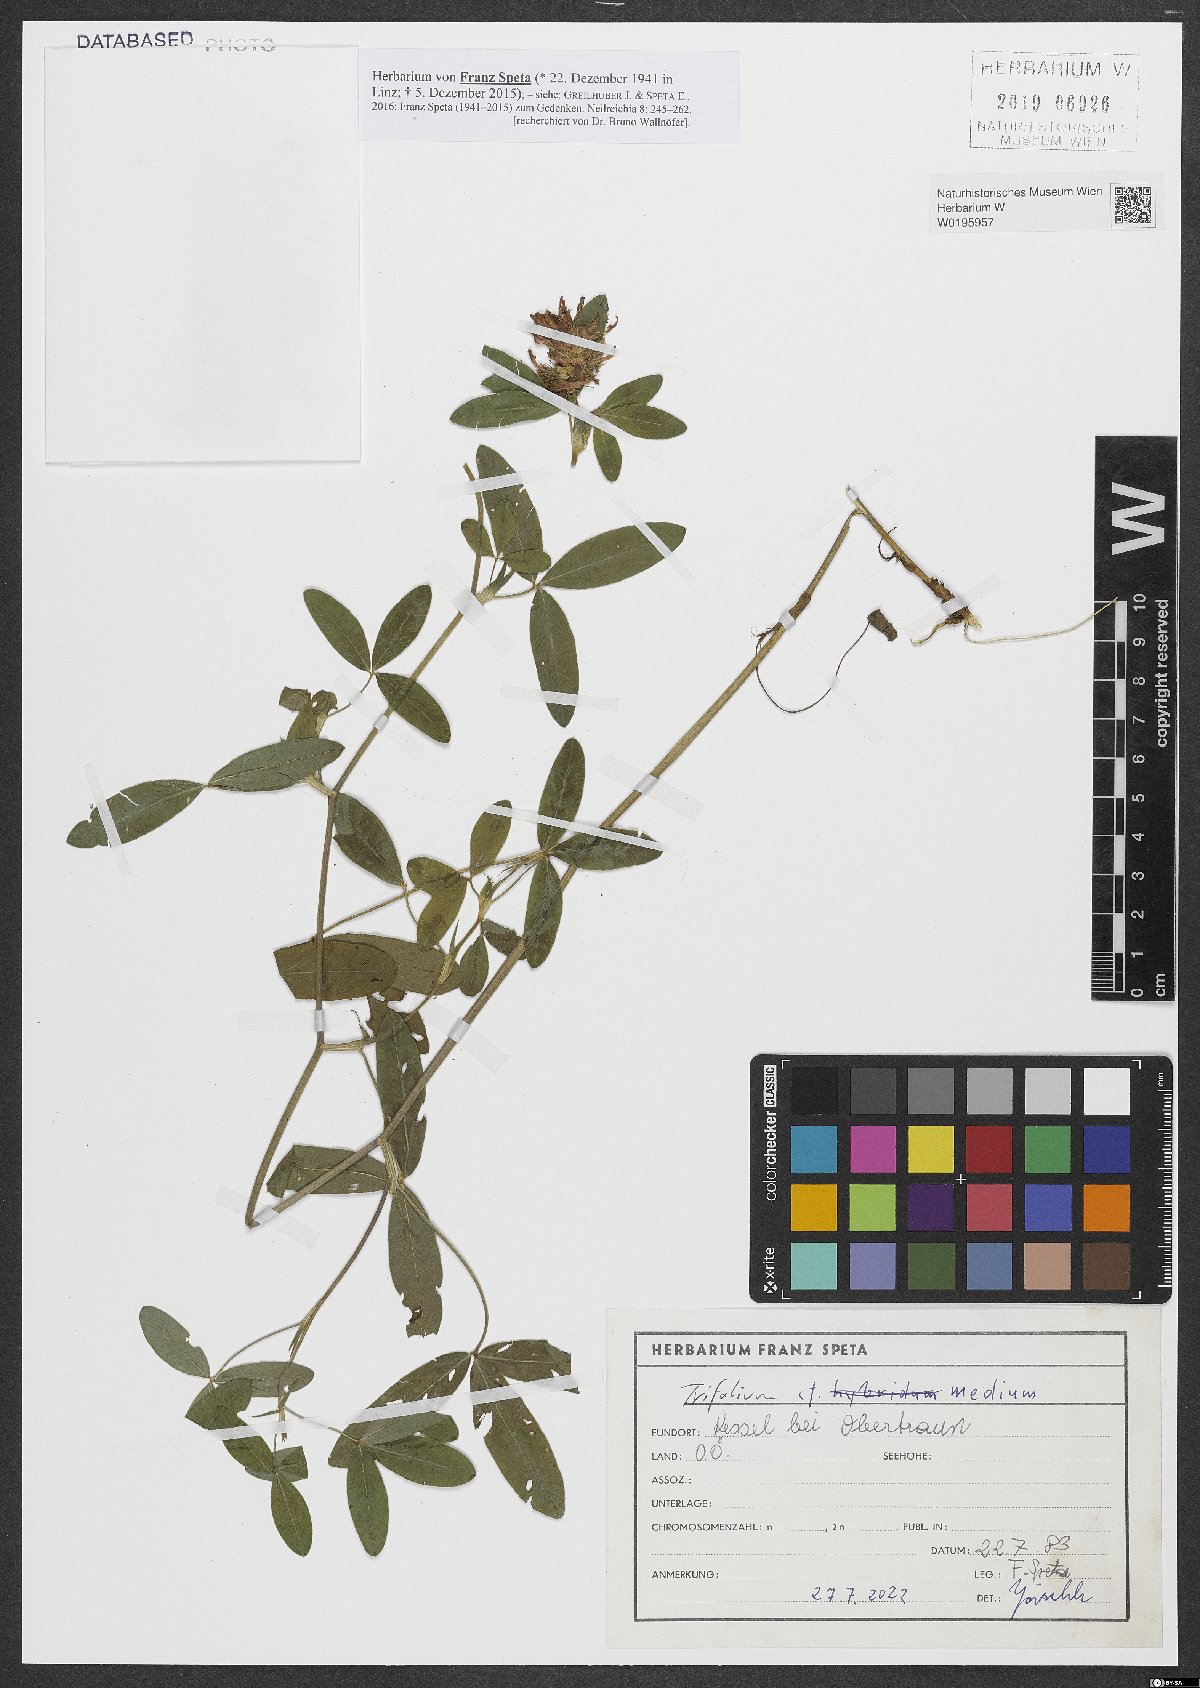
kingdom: Plantae
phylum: Tracheophyta
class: Magnoliopsida
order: Fabales
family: Fabaceae
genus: Trifolium
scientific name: Trifolium medium
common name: Zigzag clover
